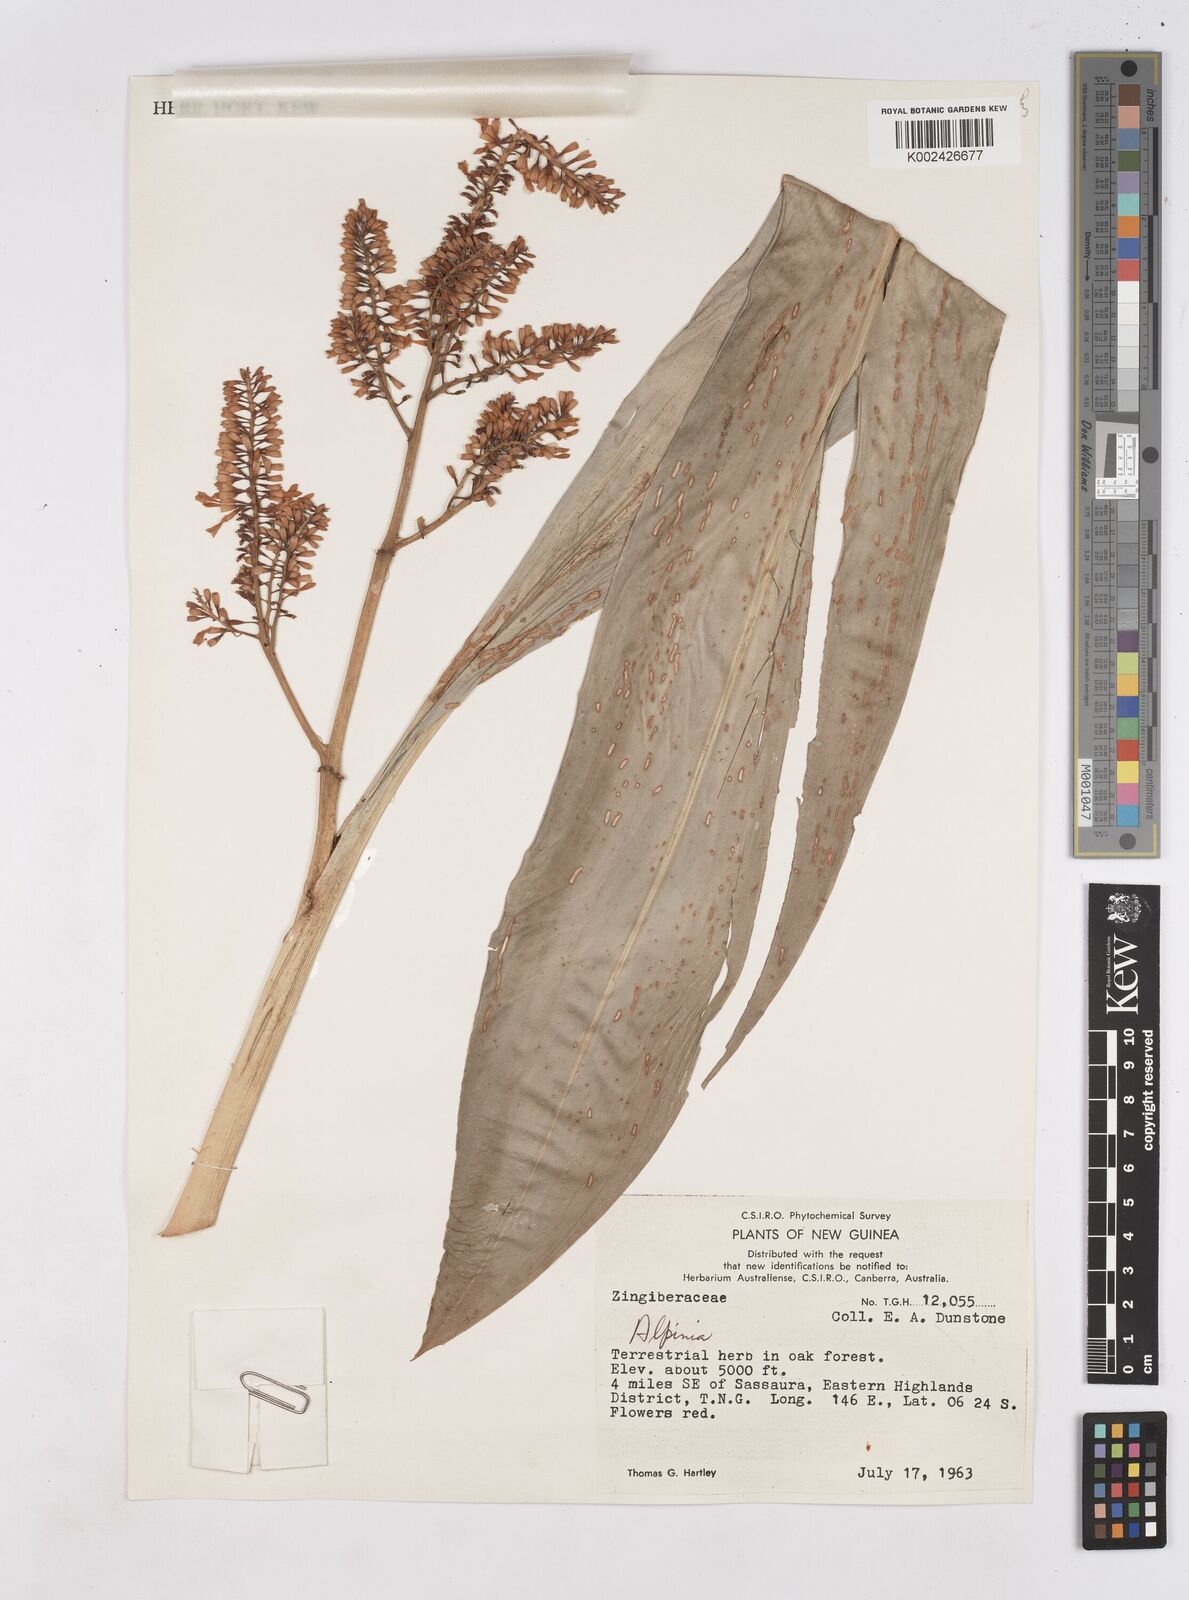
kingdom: Plantae
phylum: Tracheophyta
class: Liliopsida
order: Zingiberales
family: Zingiberaceae
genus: Riedelia
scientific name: Riedelia
